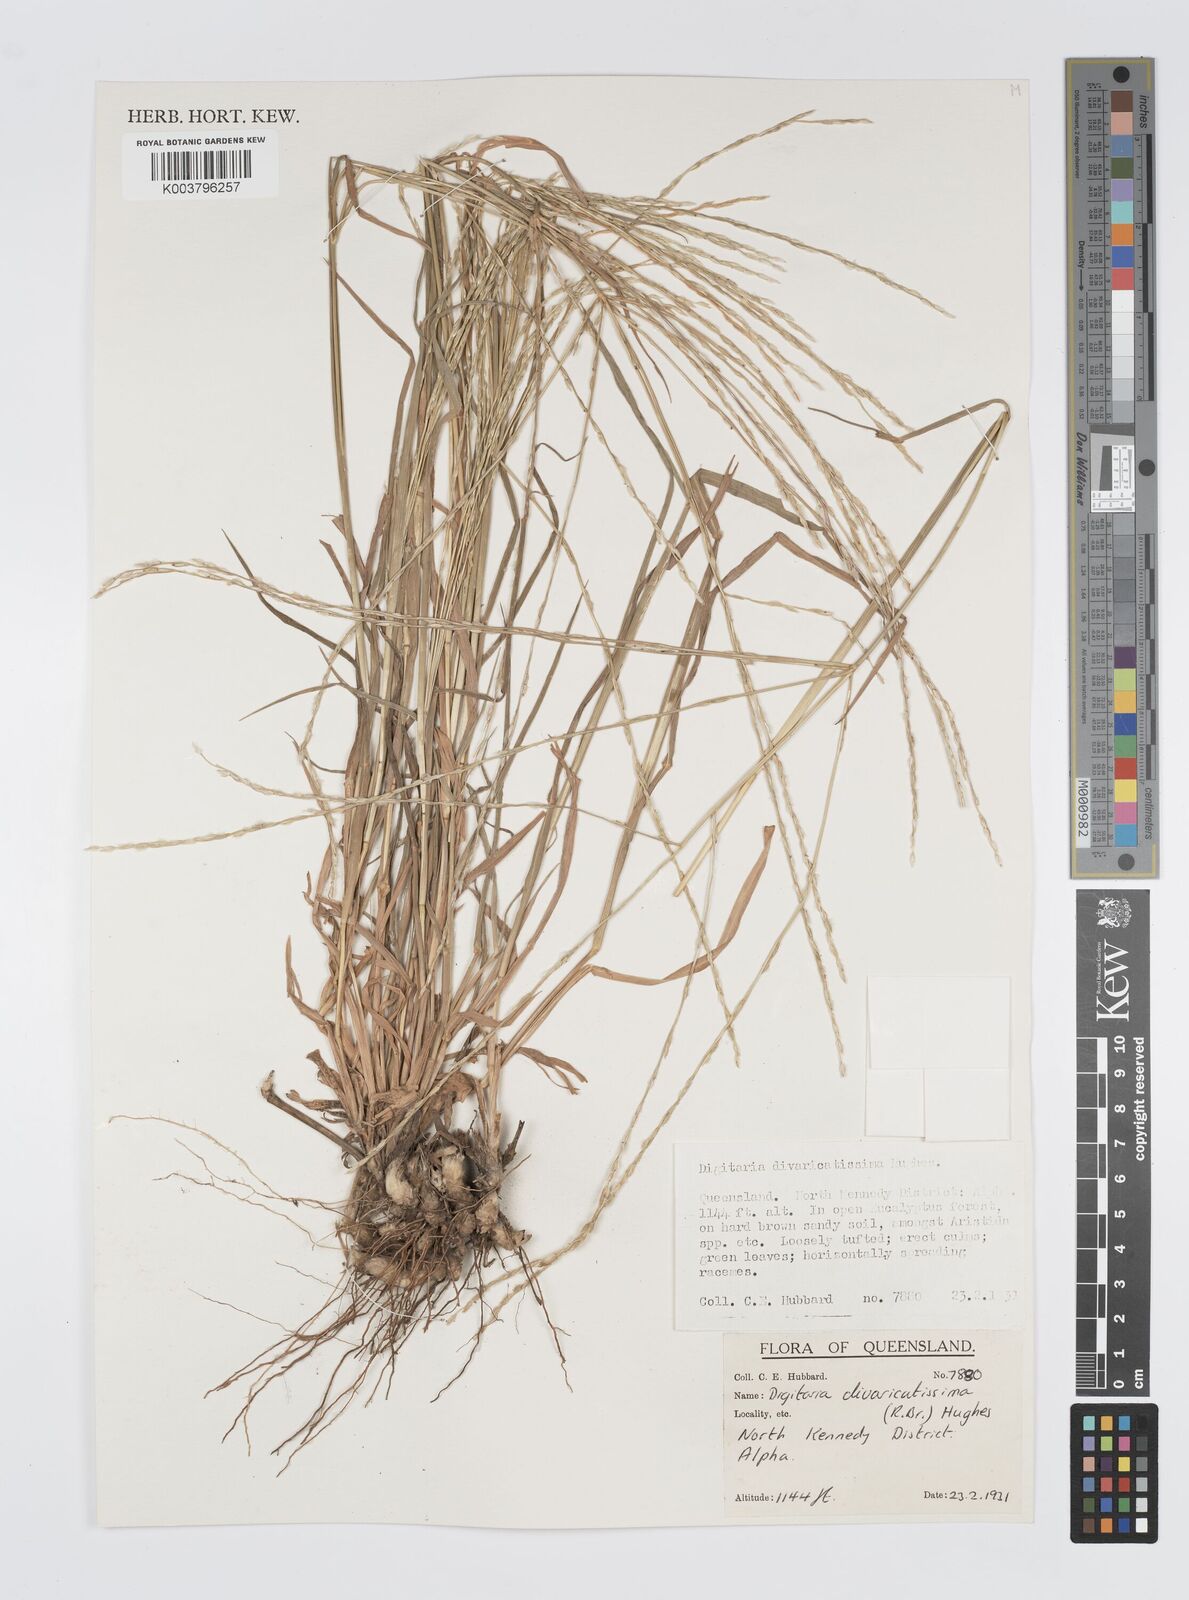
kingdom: Plantae
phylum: Tracheophyta
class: Liliopsida
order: Poales
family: Poaceae
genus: Digitaria
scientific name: Digitaria divaricatissima
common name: Crabgrass
